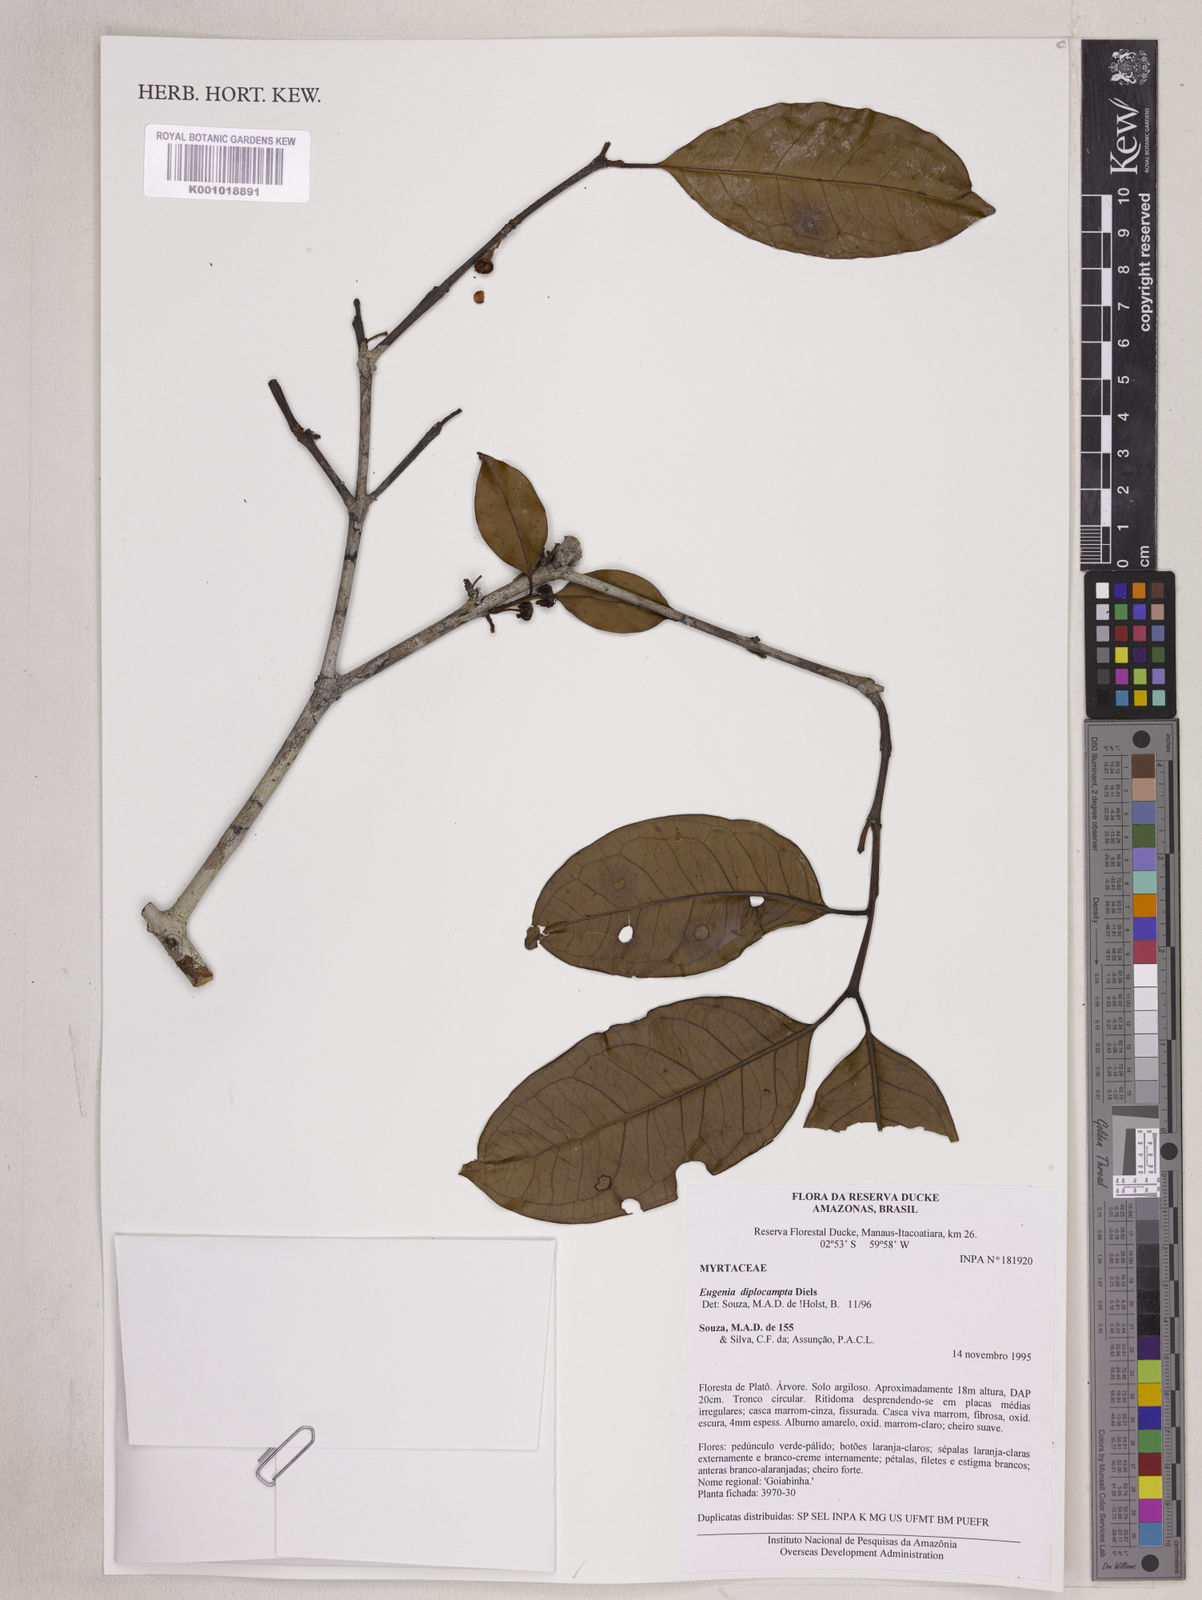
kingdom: Plantae
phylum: Tracheophyta
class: Magnoliopsida
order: Myrtales
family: Myrtaceae
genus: Eugenia
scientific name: Eugenia joseramosii
